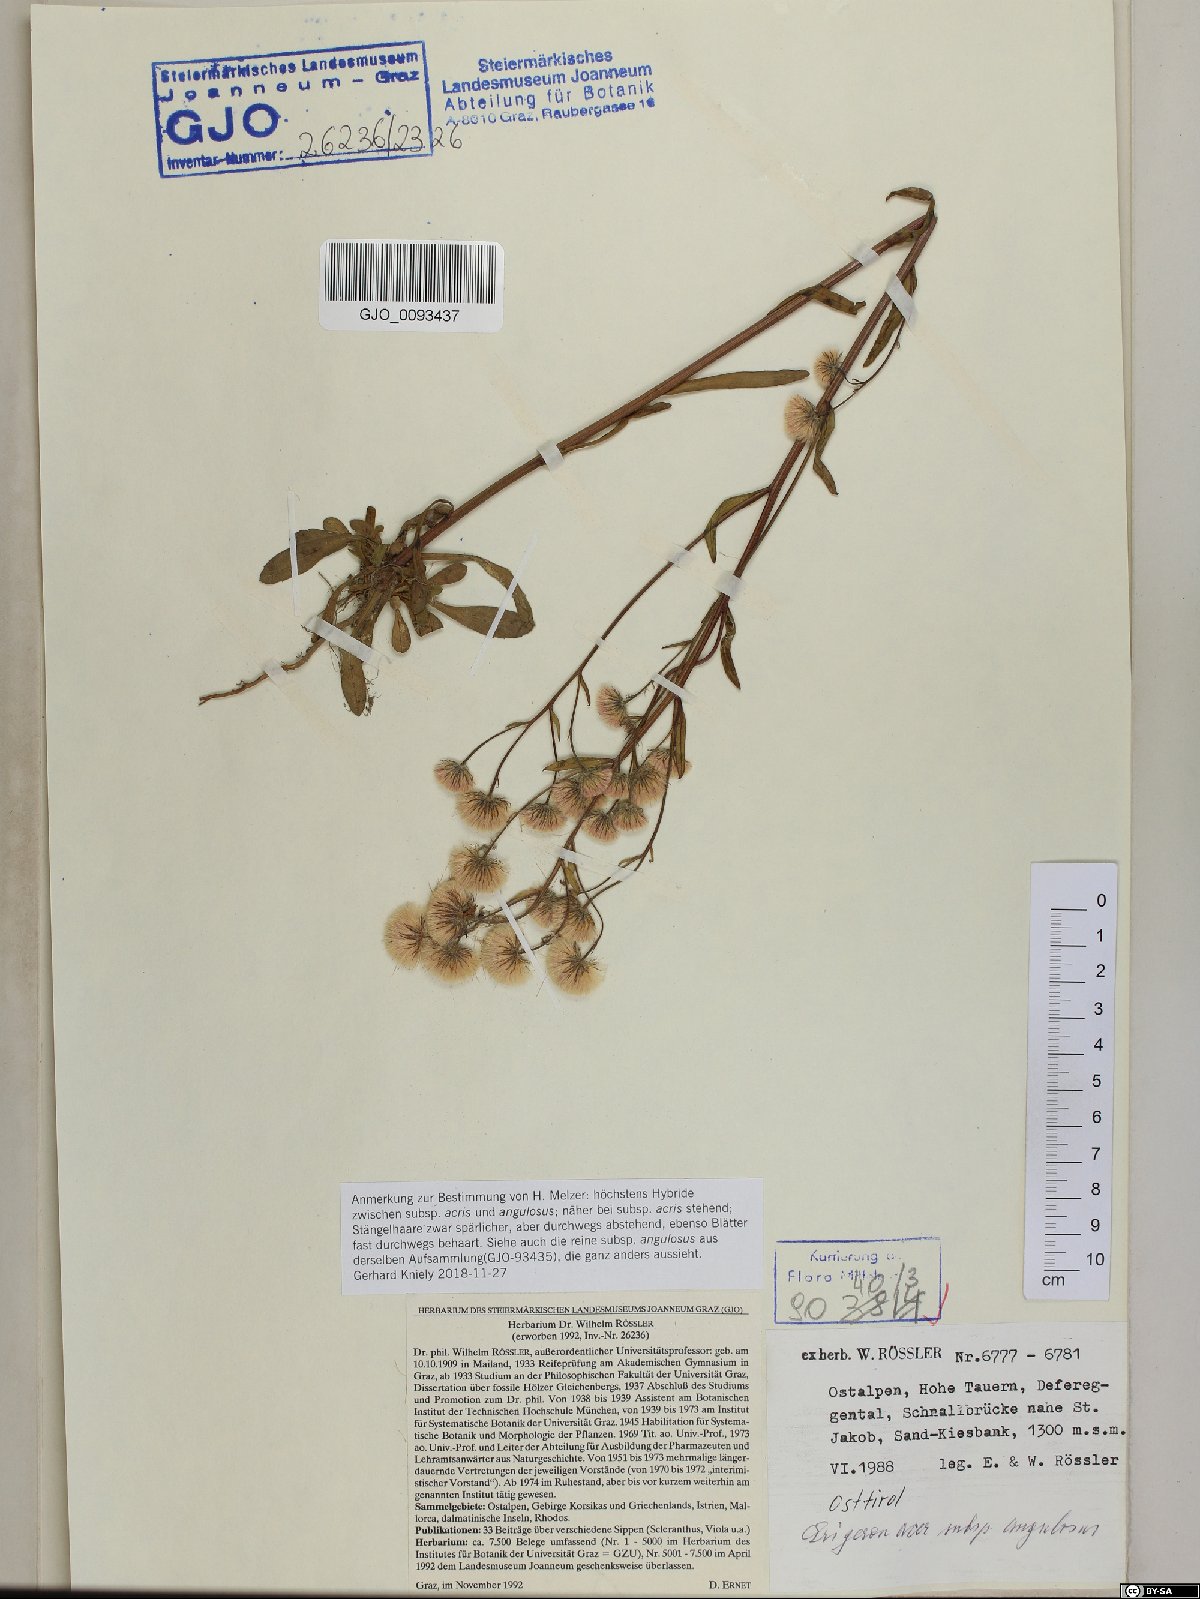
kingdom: Plantae
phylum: Tracheophyta
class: Magnoliopsida
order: Asterales
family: Asteraceae
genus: Erigeron
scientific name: Erigeron angulosus
